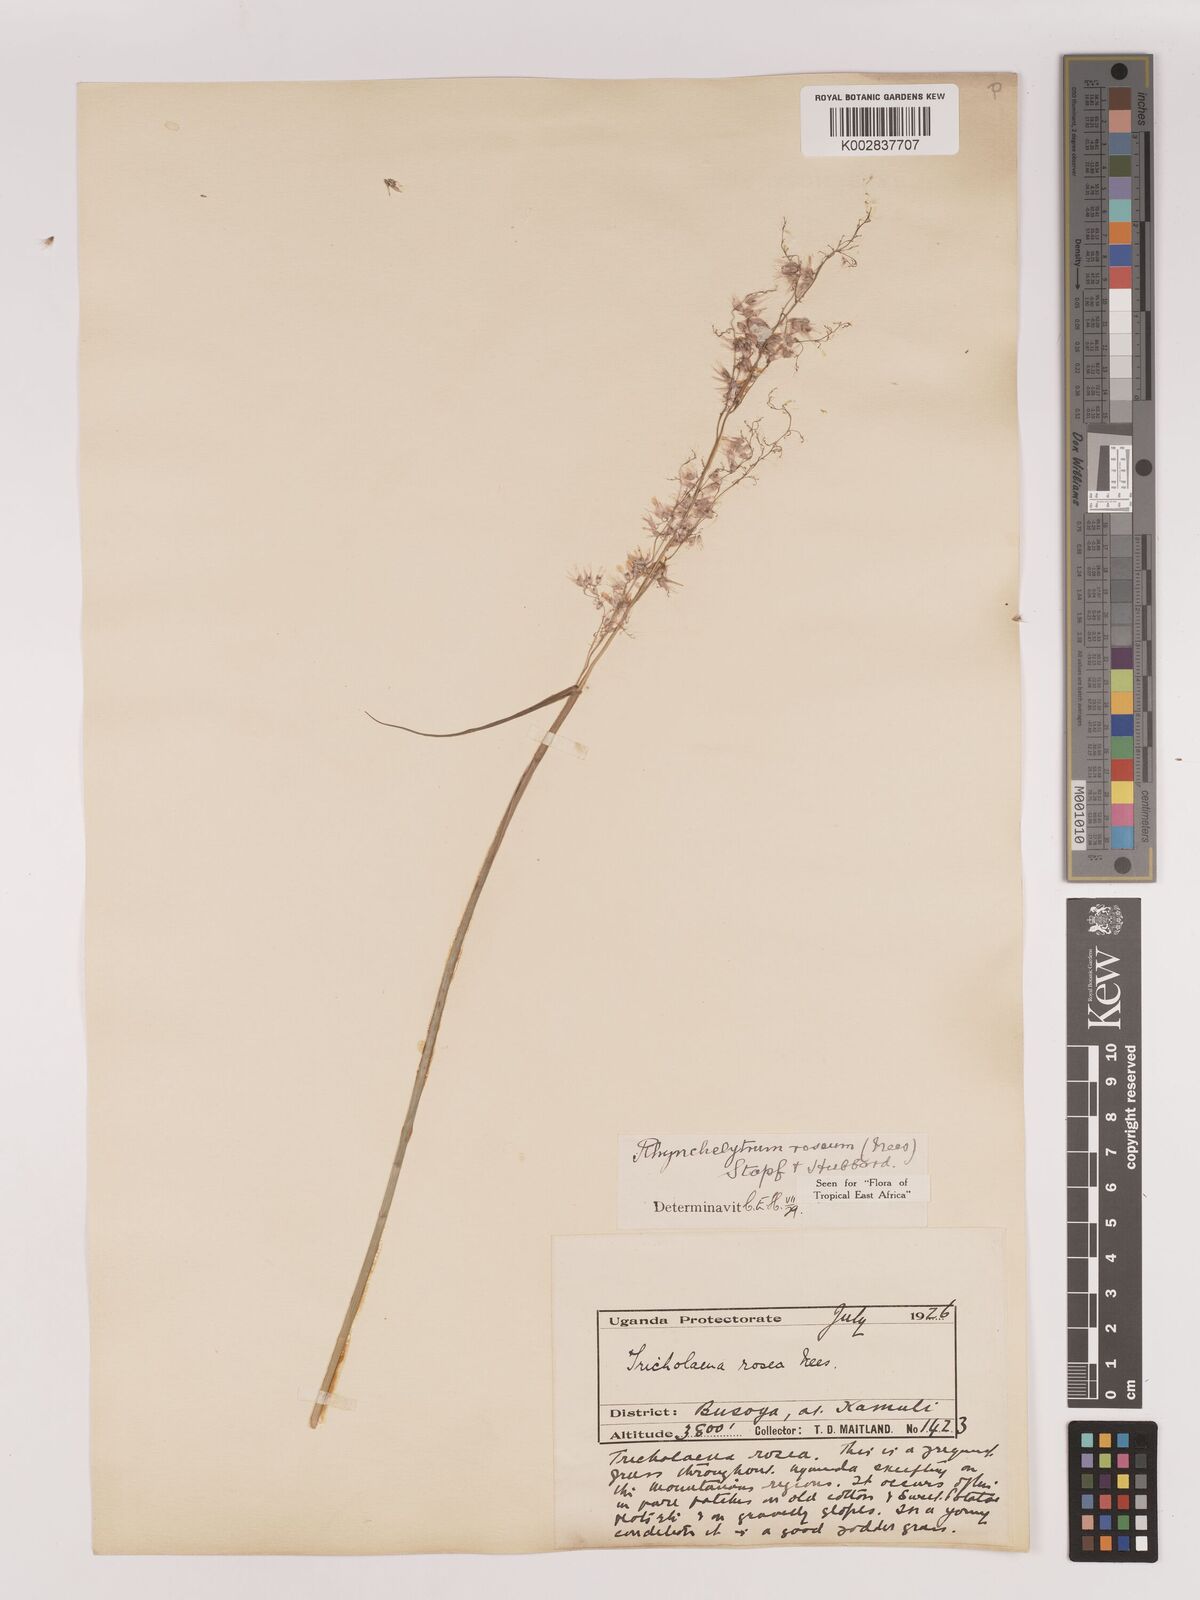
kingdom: Plantae
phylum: Tracheophyta
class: Liliopsida
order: Poales
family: Poaceae
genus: Melinis
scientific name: Melinis repens
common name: Rose natal grass
